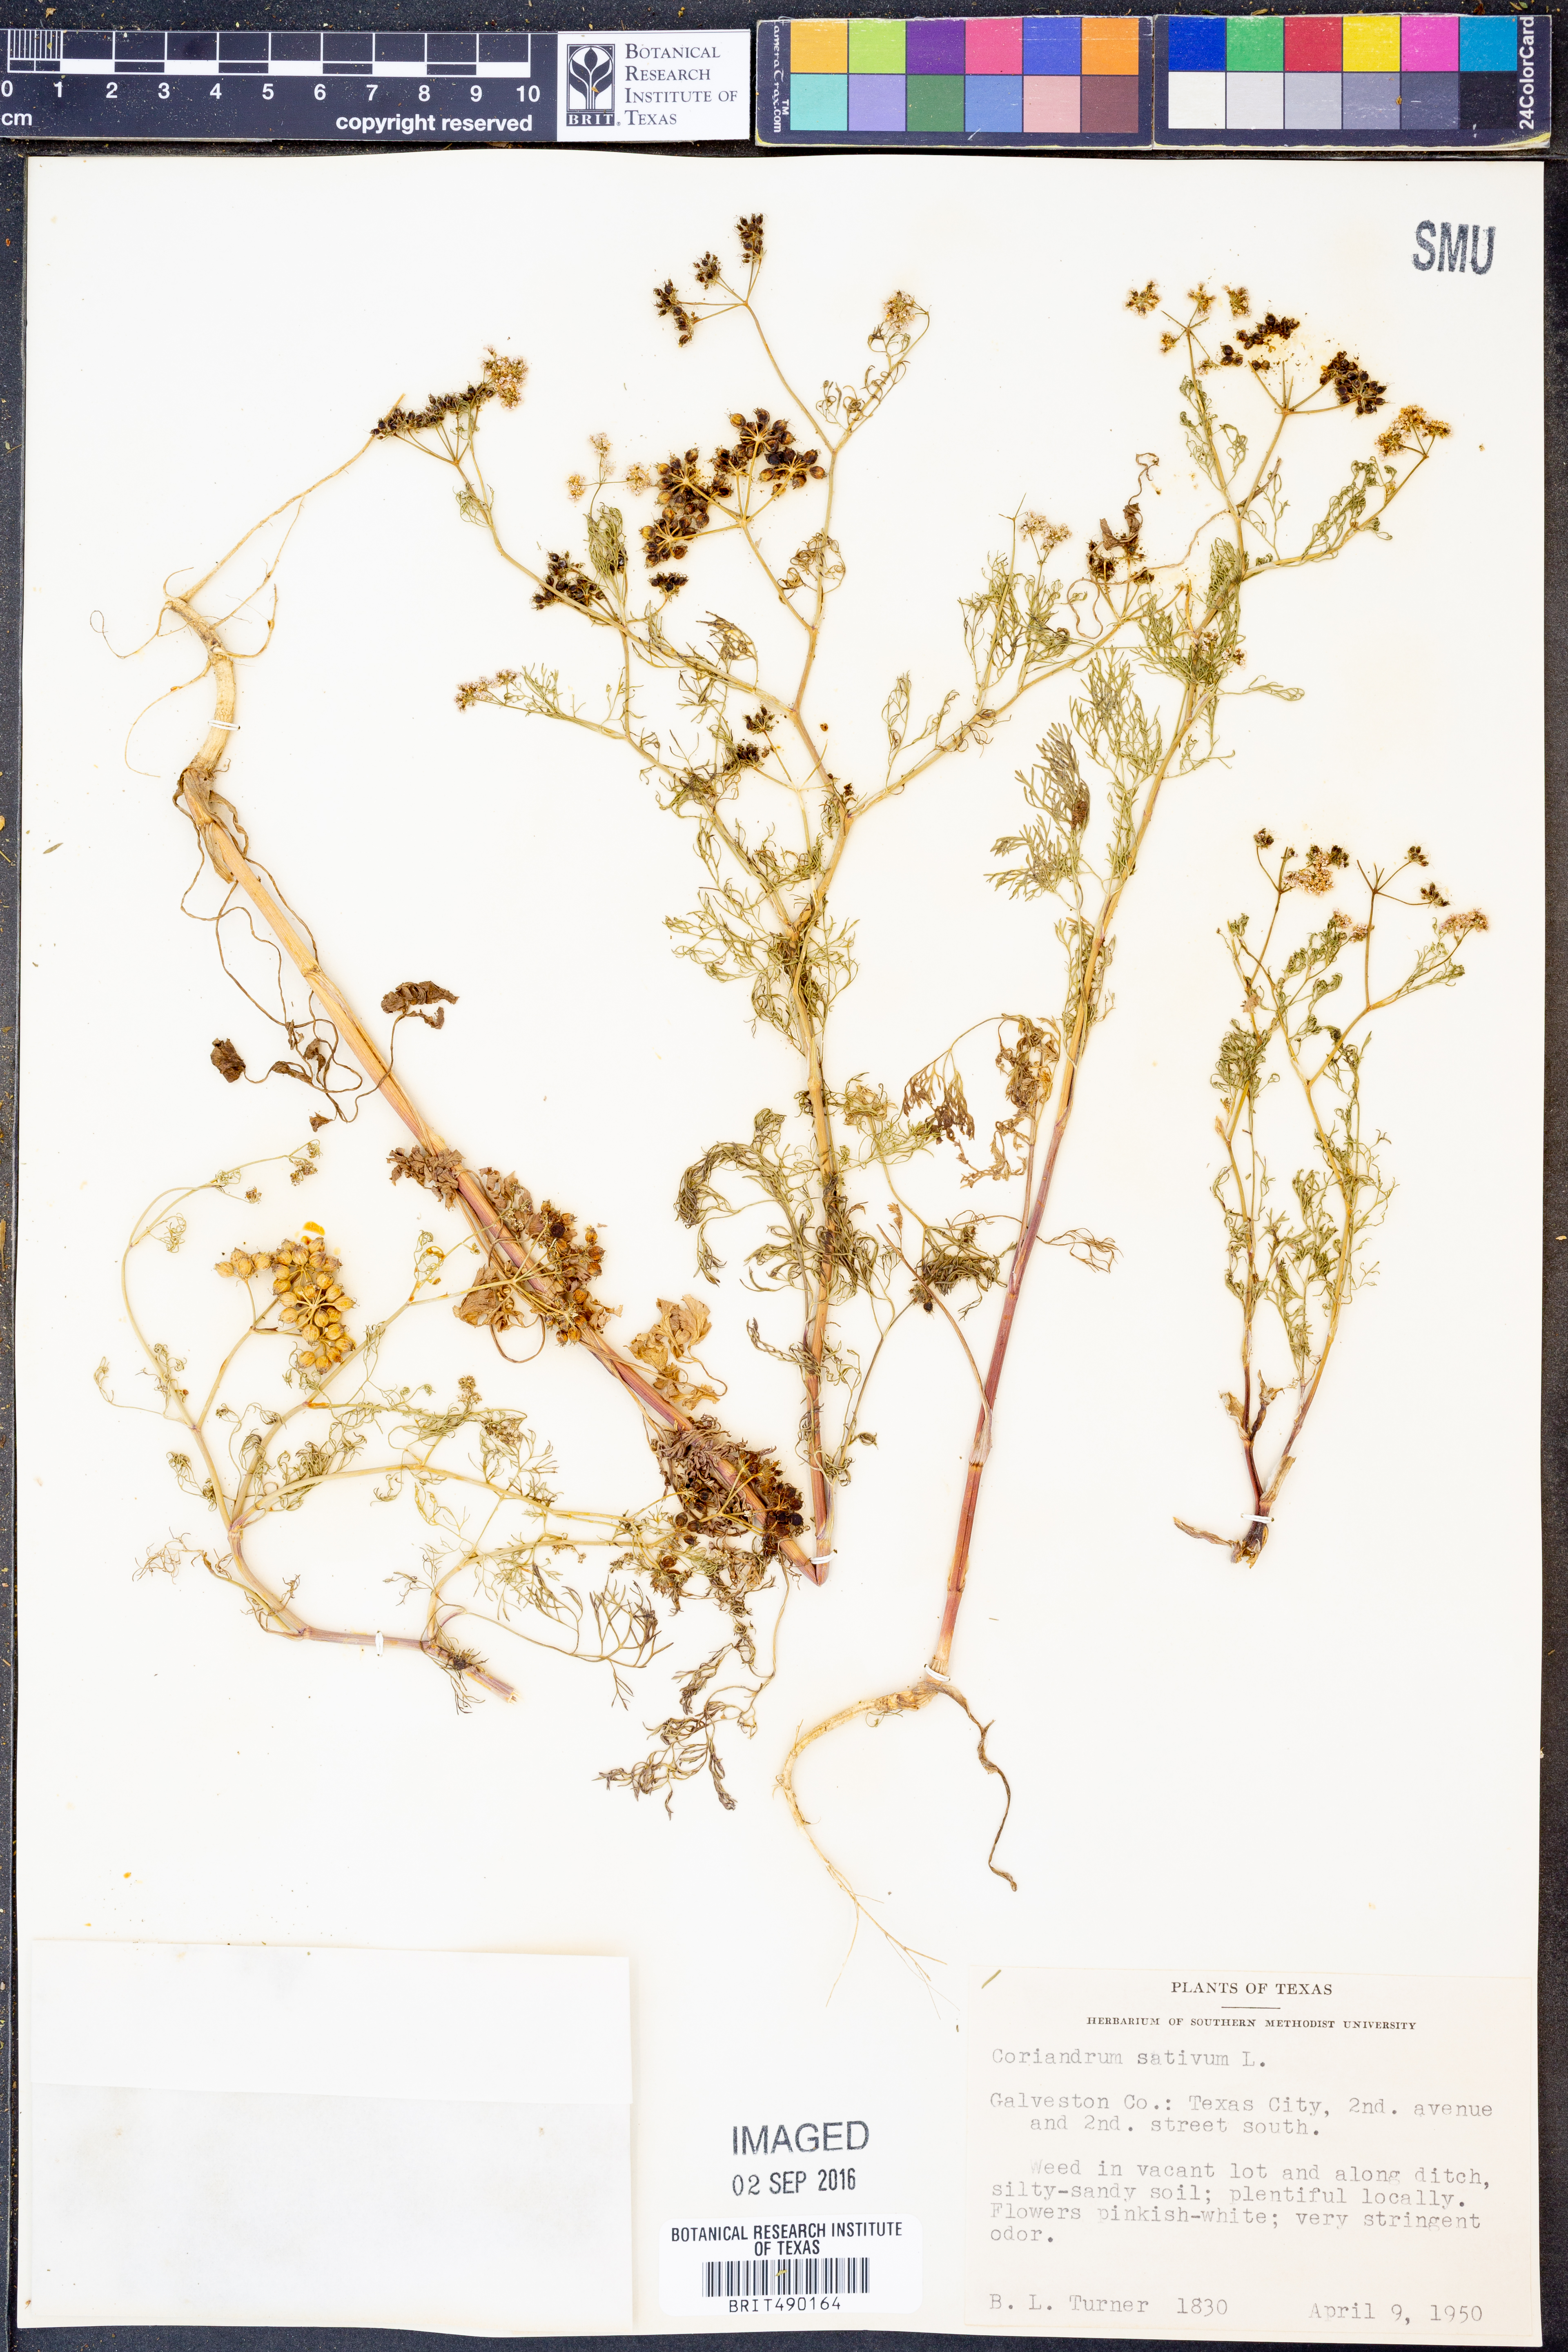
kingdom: Plantae
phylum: Tracheophyta
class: Magnoliopsida
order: Apiales
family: Apiaceae
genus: Coriandrum
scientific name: Coriandrum sativum
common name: Coriander
